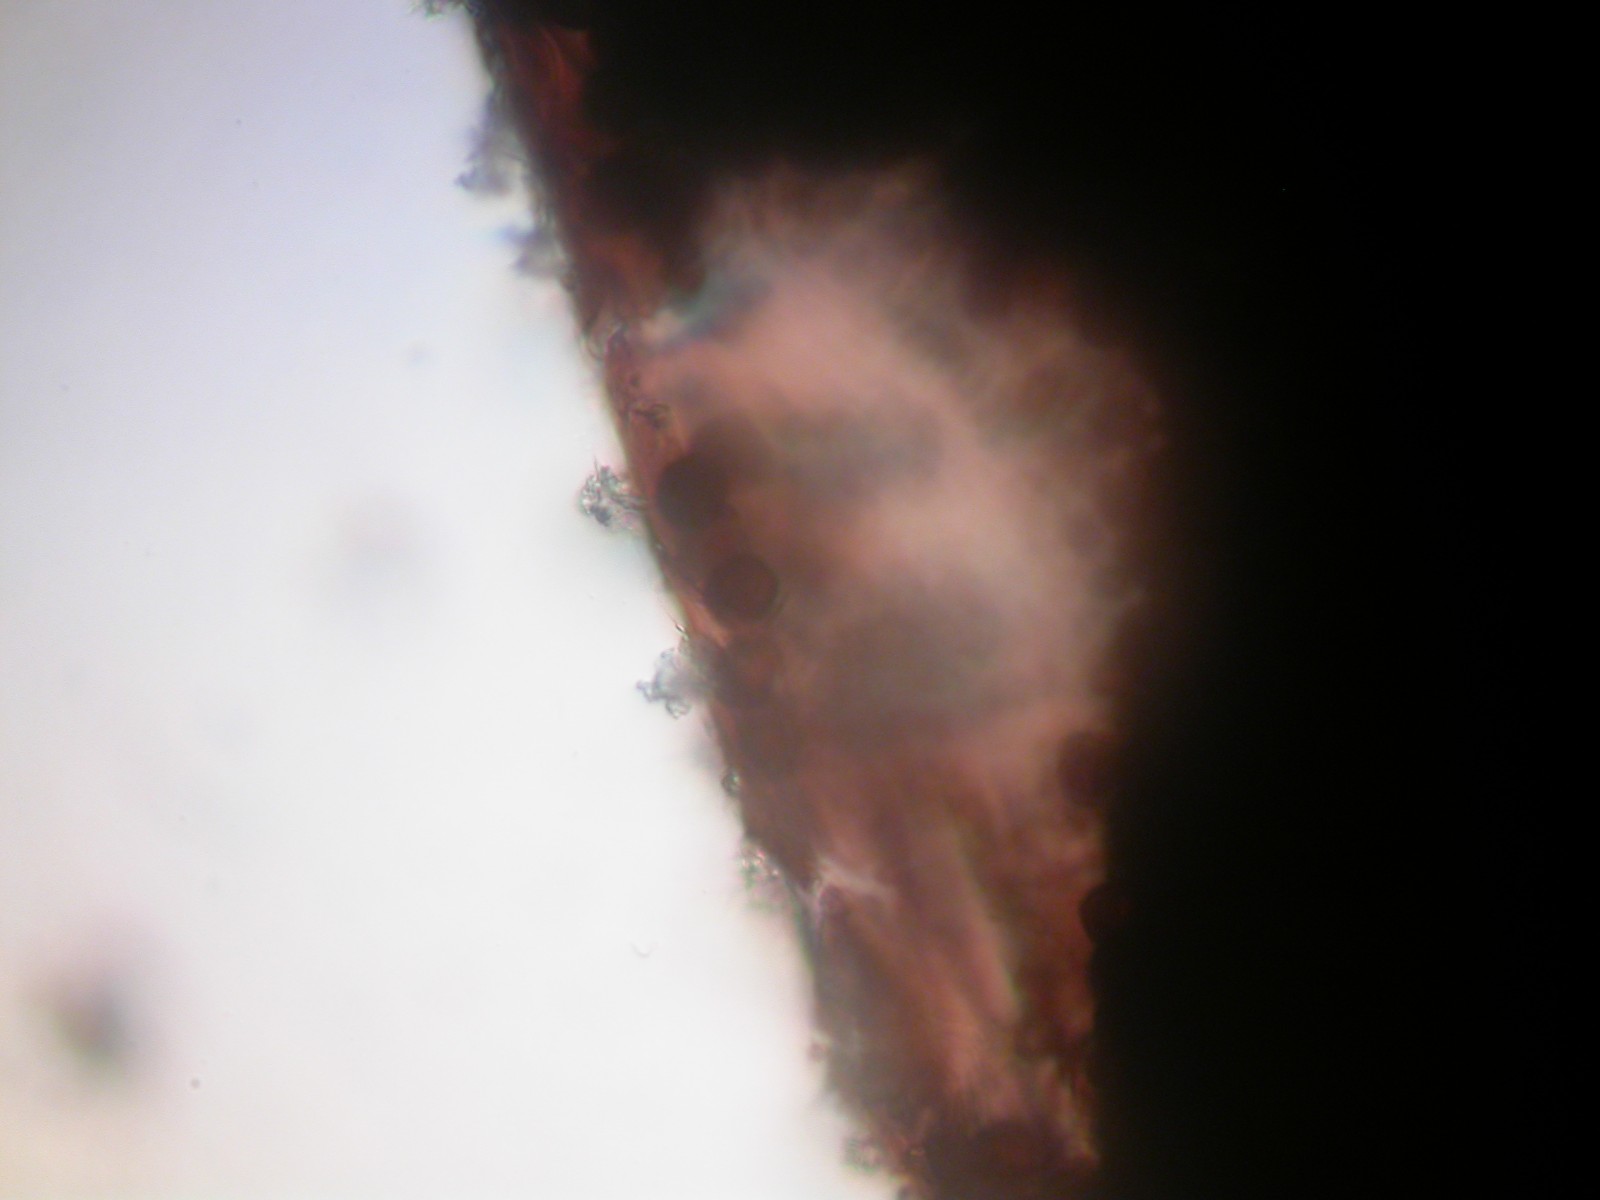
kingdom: Protozoa
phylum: Mycetozoa
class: Myxomycetes
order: Physarales
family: Didymiaceae
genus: Didymium
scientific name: Didymium melanospermum
